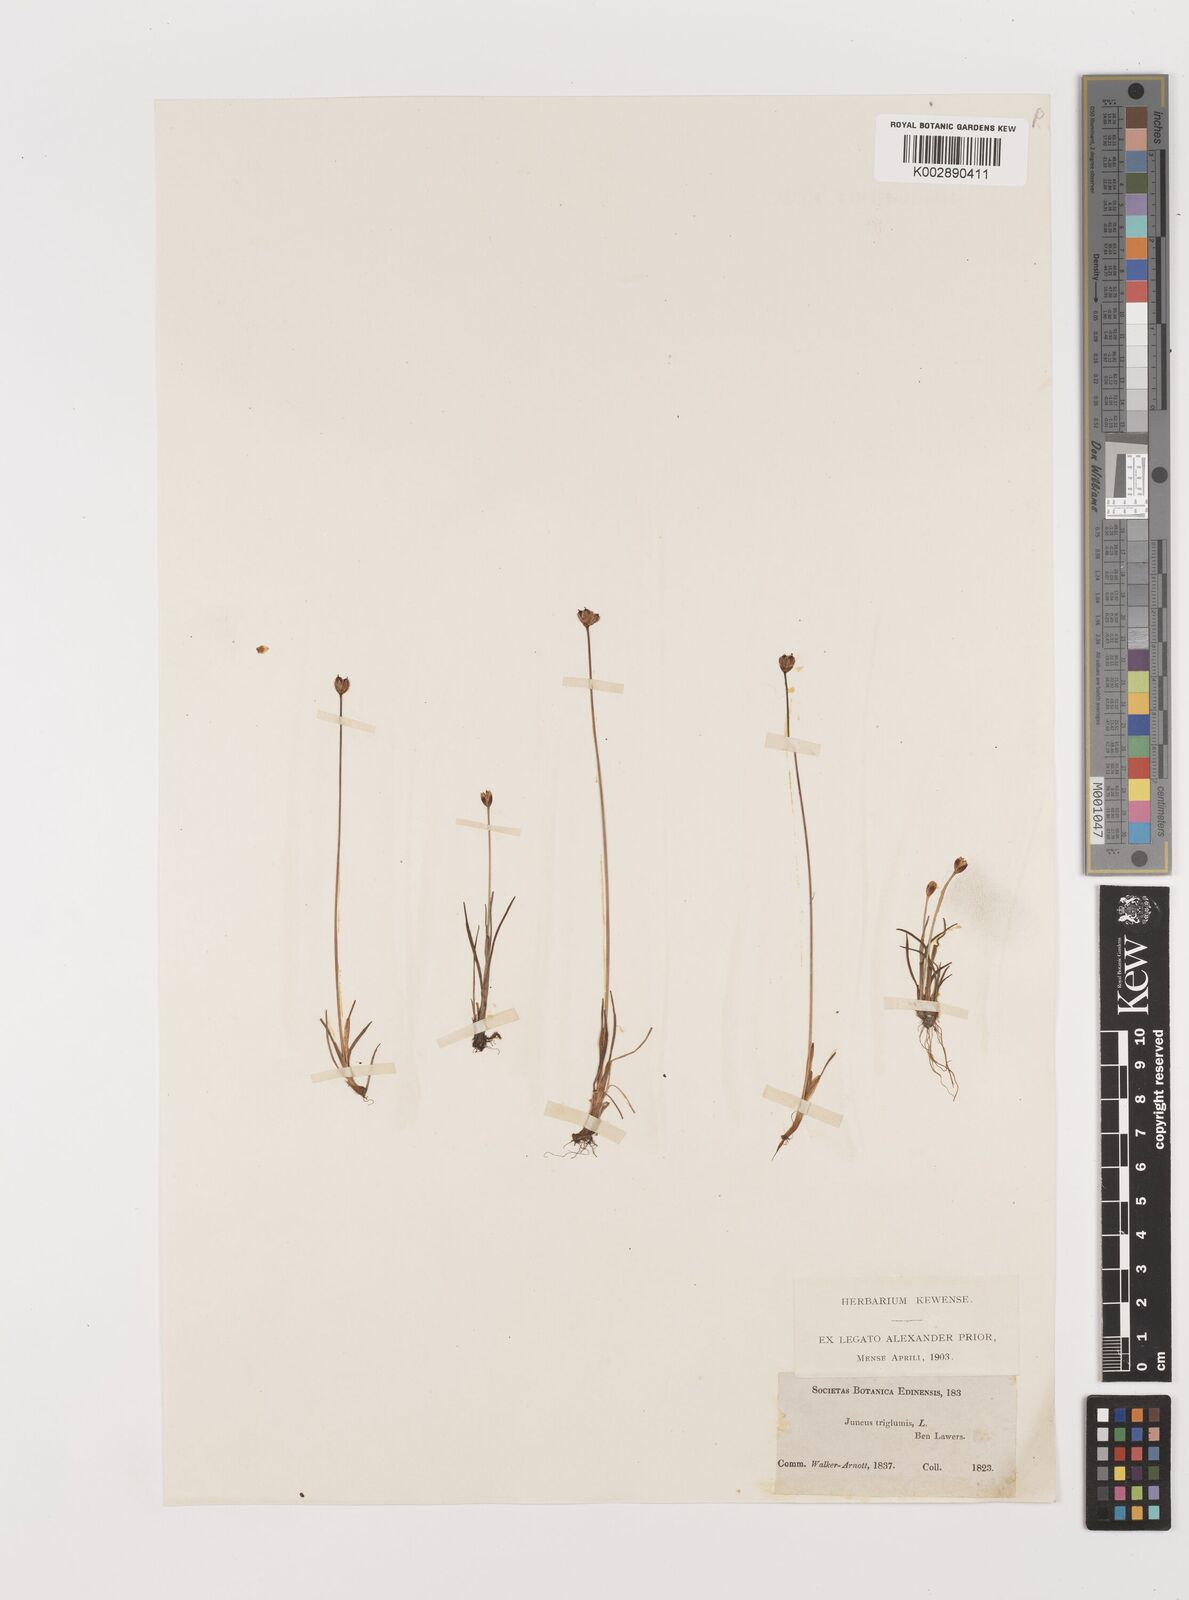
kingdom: Plantae
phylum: Tracheophyta
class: Liliopsida
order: Poales
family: Juncaceae
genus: Juncus
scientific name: Juncus triglumis
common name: Three-flowered rush
